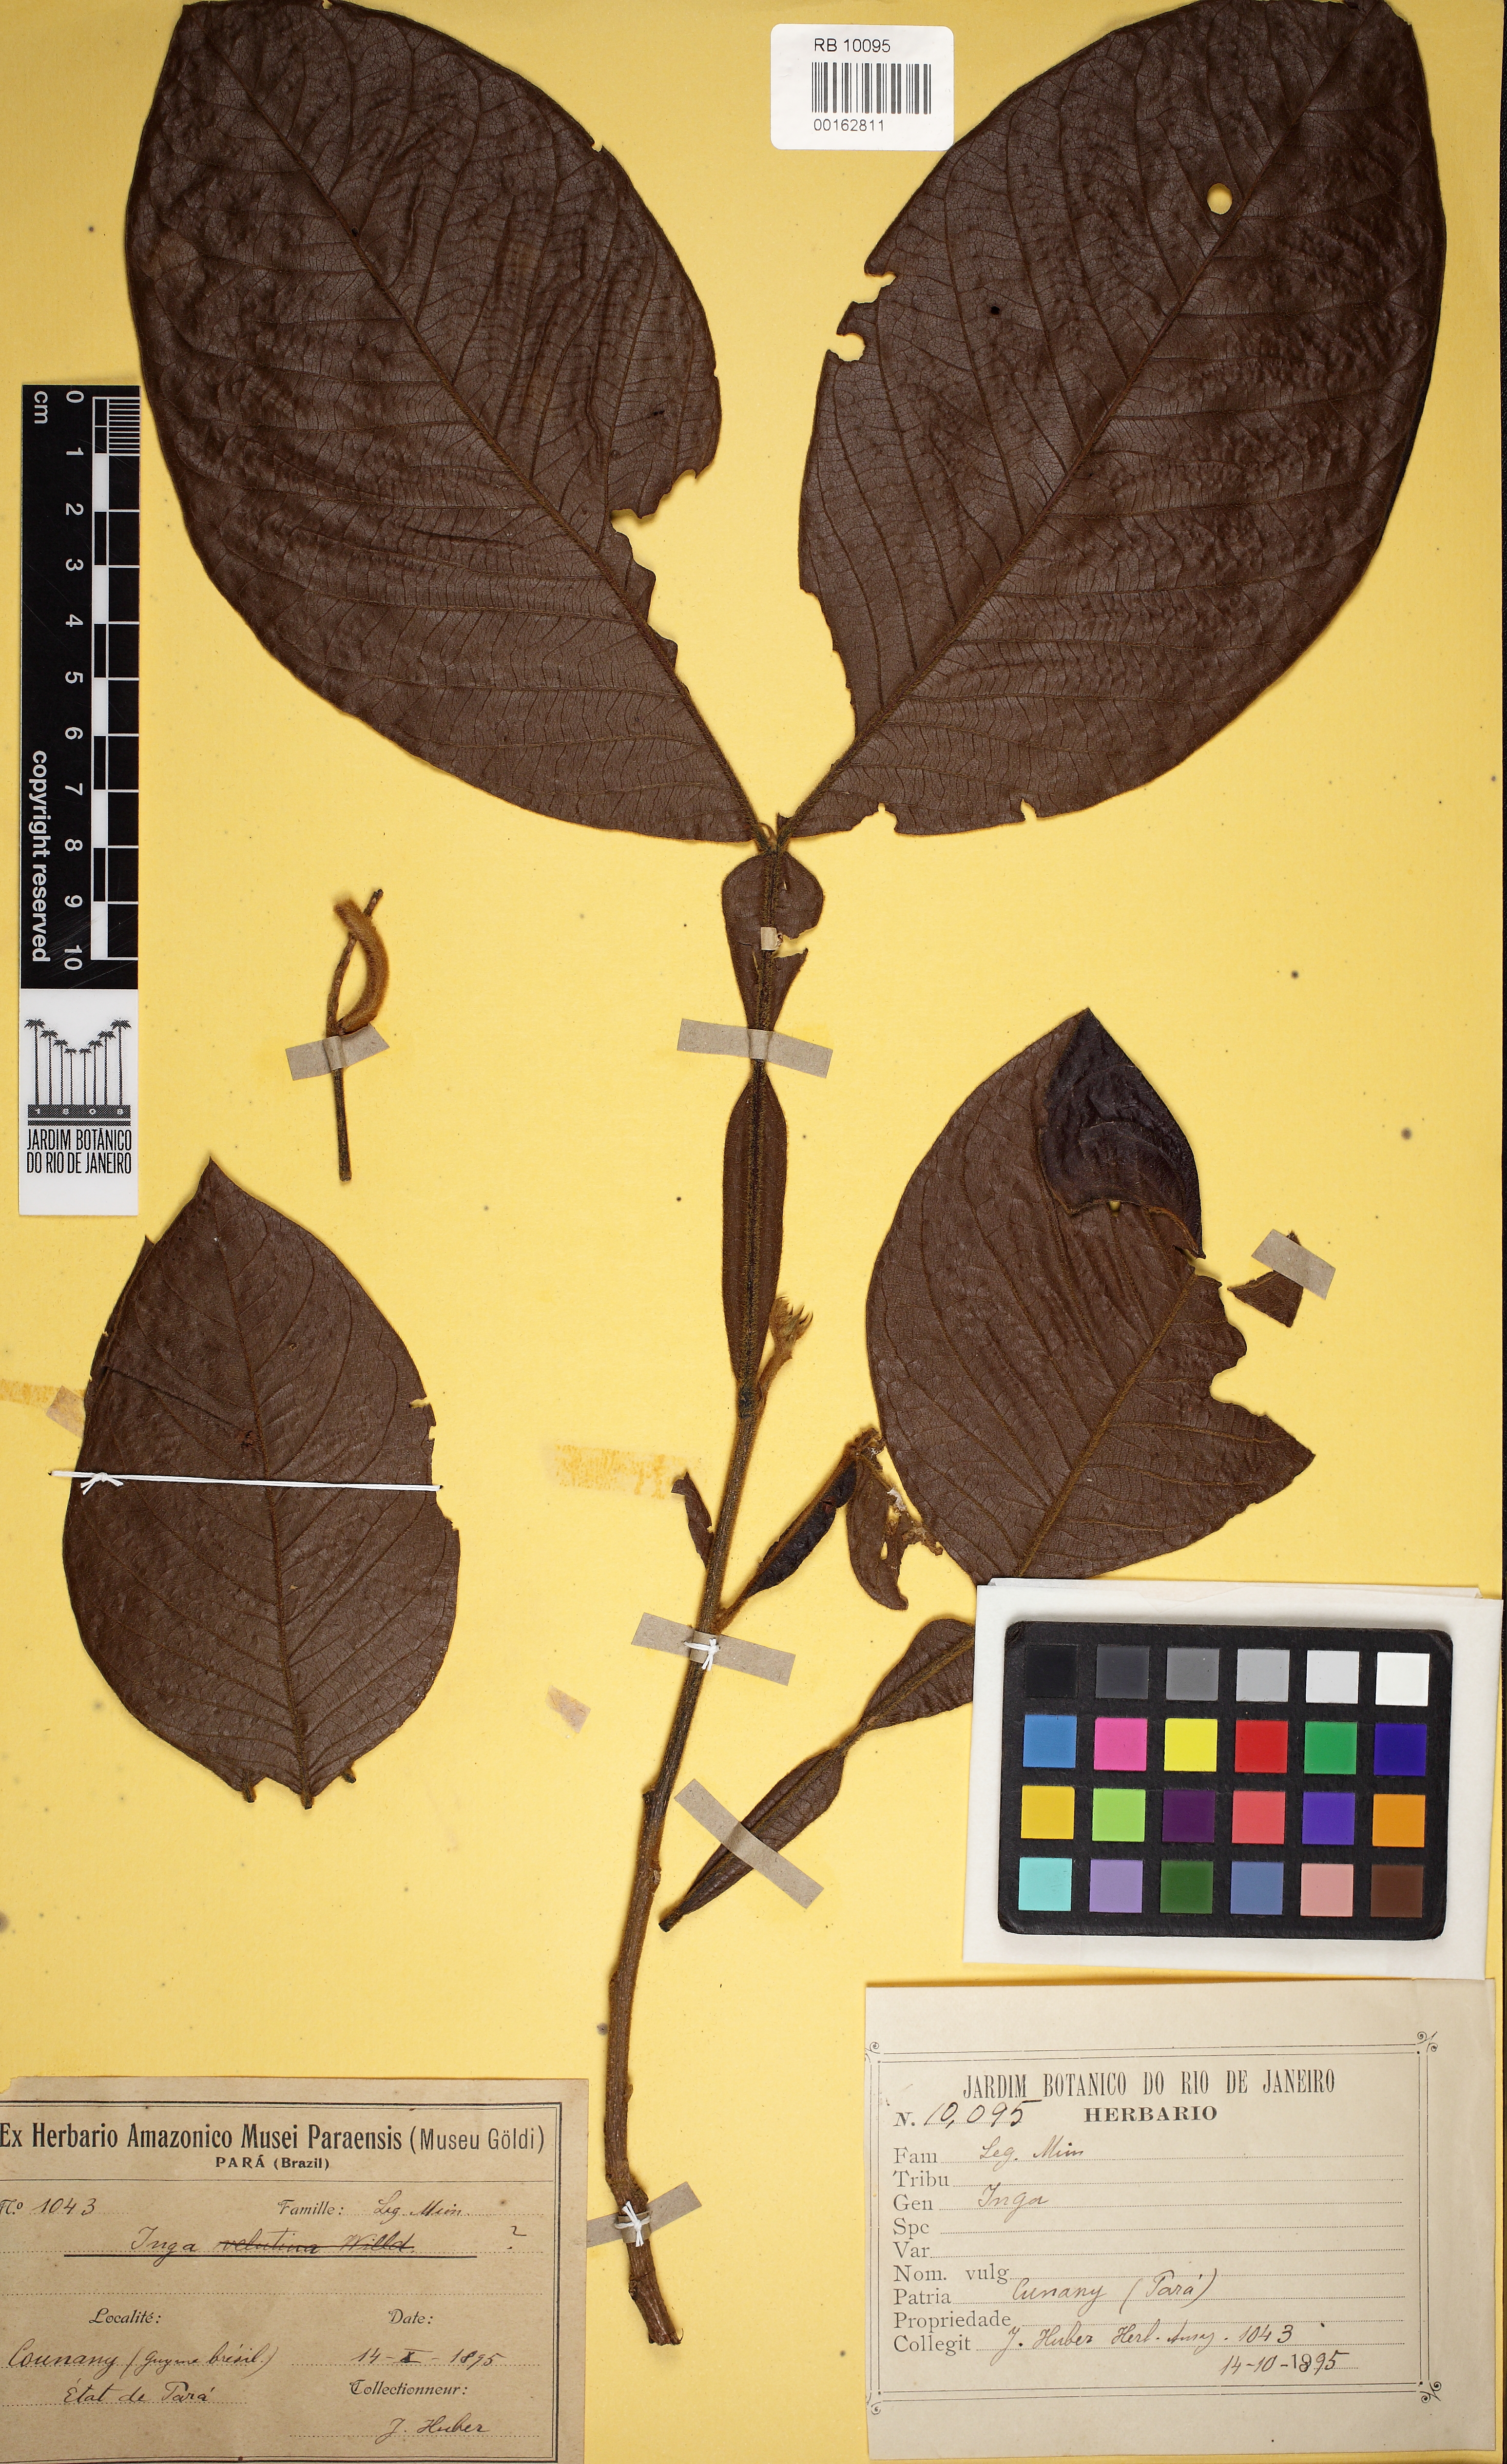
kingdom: Plantae
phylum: Tracheophyta
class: Magnoliopsida
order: Fabales
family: Fabaceae
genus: Inga
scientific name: Inga
